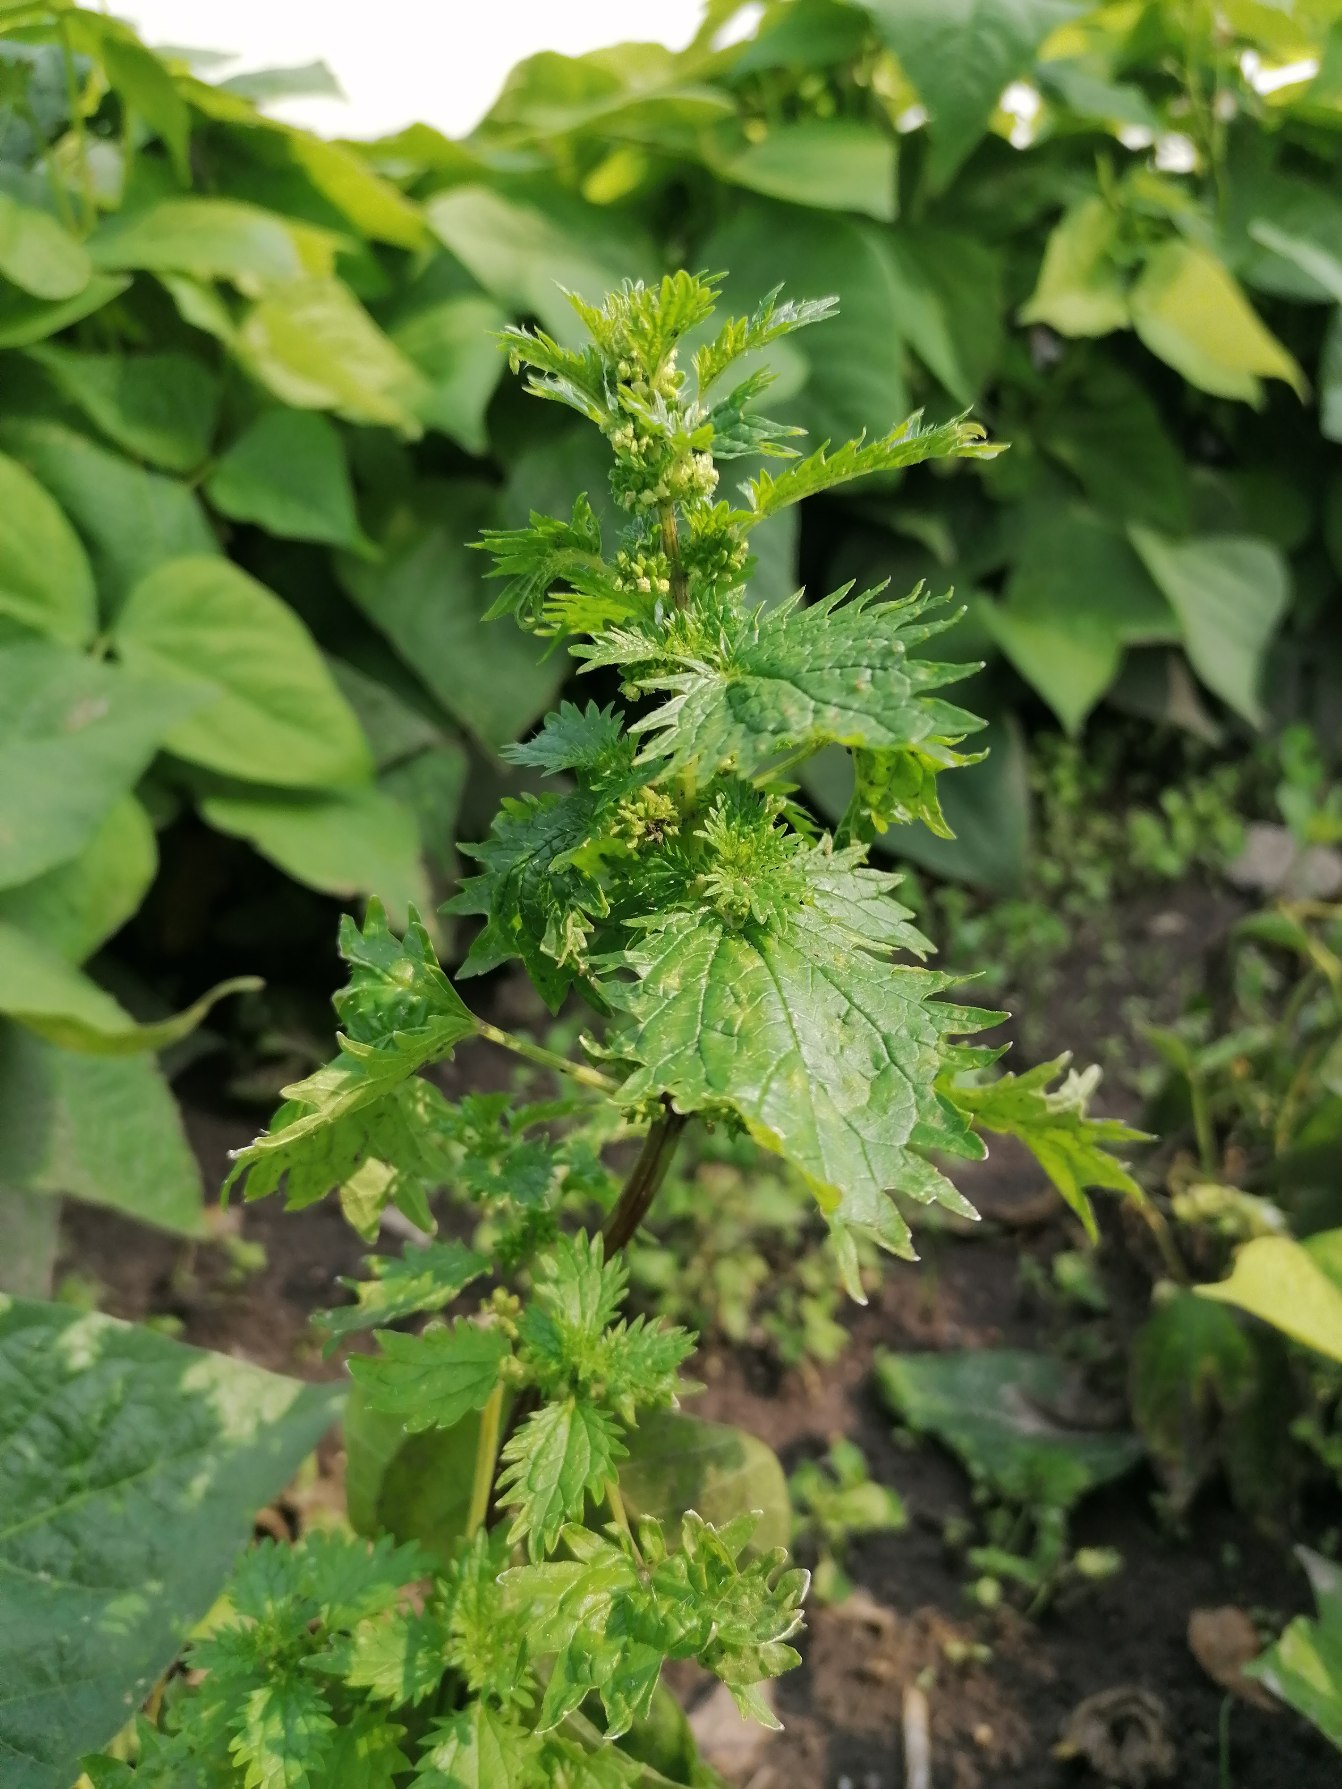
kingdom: Plantae
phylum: Tracheophyta
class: Magnoliopsida
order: Rosales
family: Urticaceae
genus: Urtica
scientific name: Urtica urens
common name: Liden nælde
